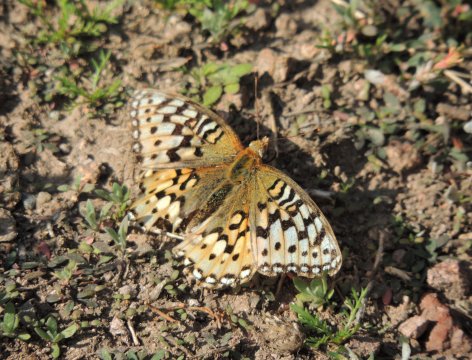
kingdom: Animalia
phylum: Arthropoda
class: Insecta
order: Lepidoptera
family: Nymphalidae
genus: Speyeria
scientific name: Speyeria coronis
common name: Coronis Fritillary
